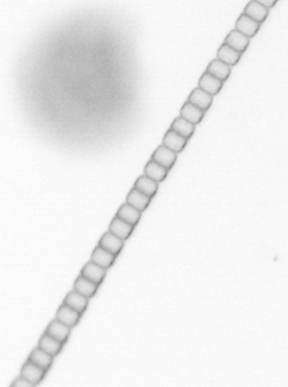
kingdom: Chromista
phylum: Ochrophyta
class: Bacillariophyceae
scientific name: Bacillariophyceae
